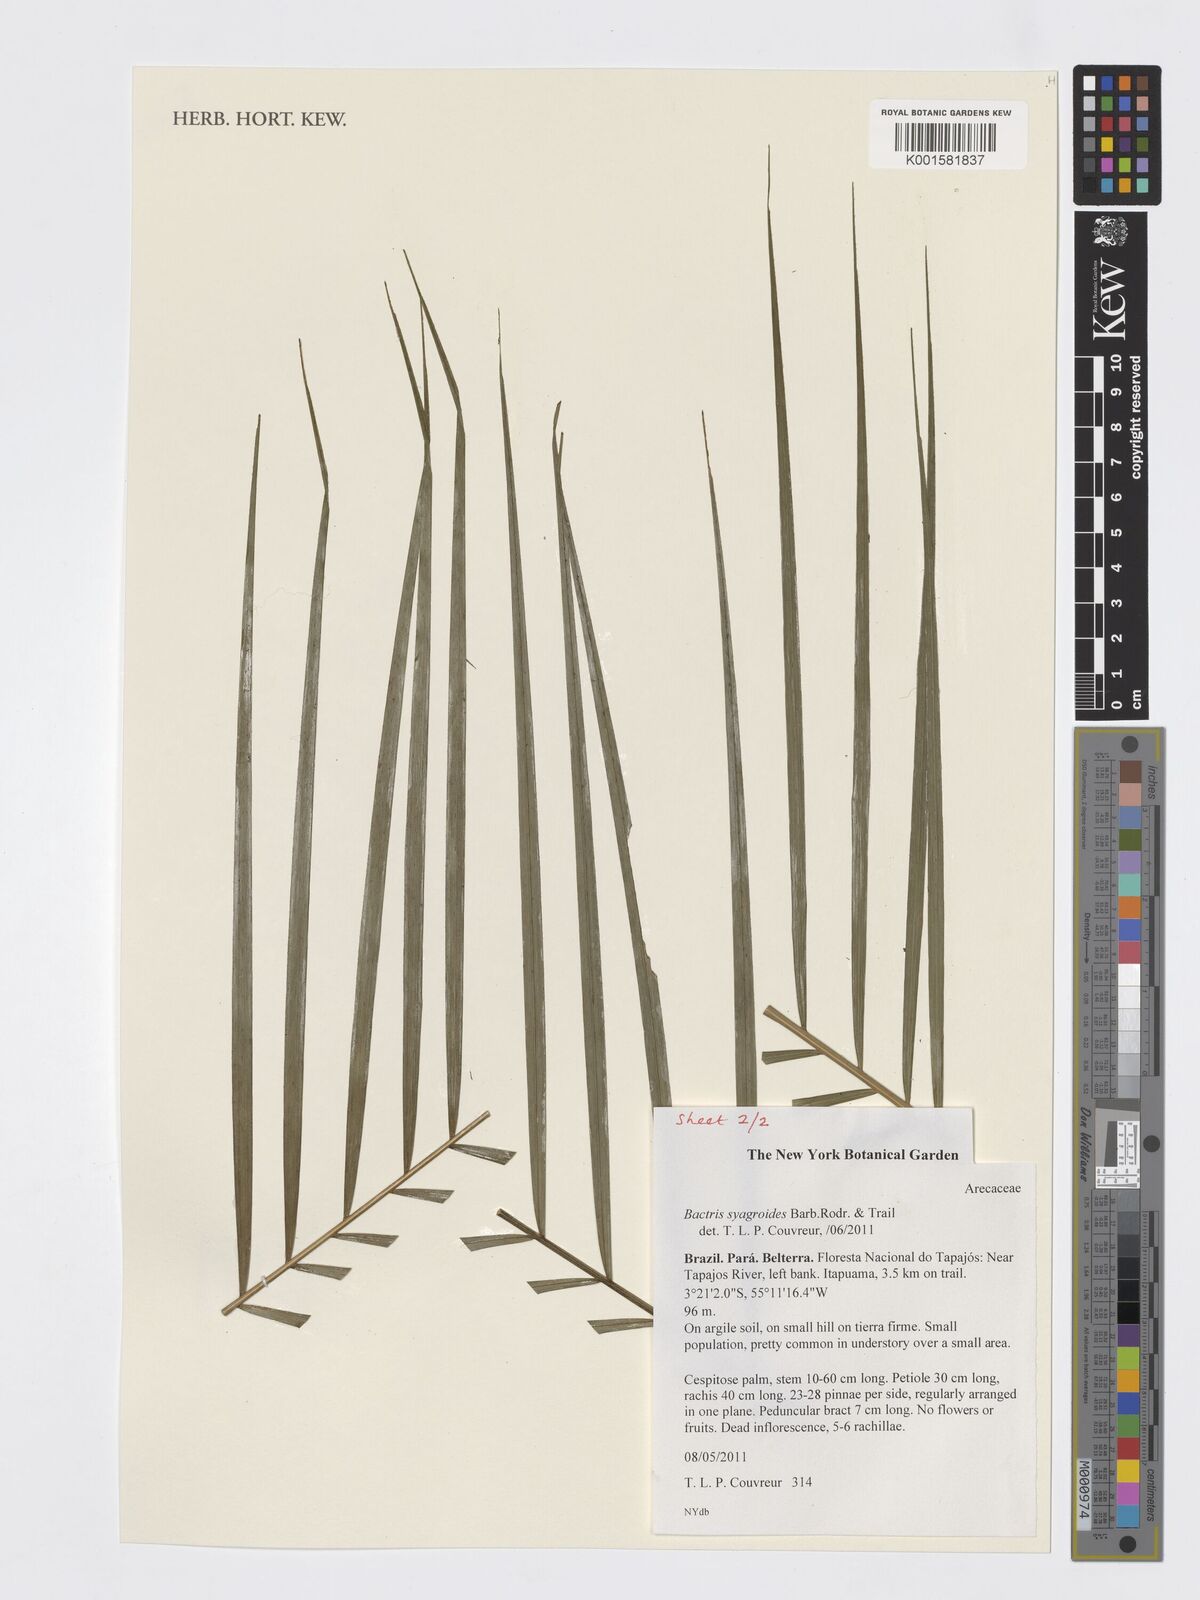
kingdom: Plantae
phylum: Tracheophyta
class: Liliopsida
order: Arecales
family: Arecaceae
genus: Bactris
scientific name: Bactris syagroides
